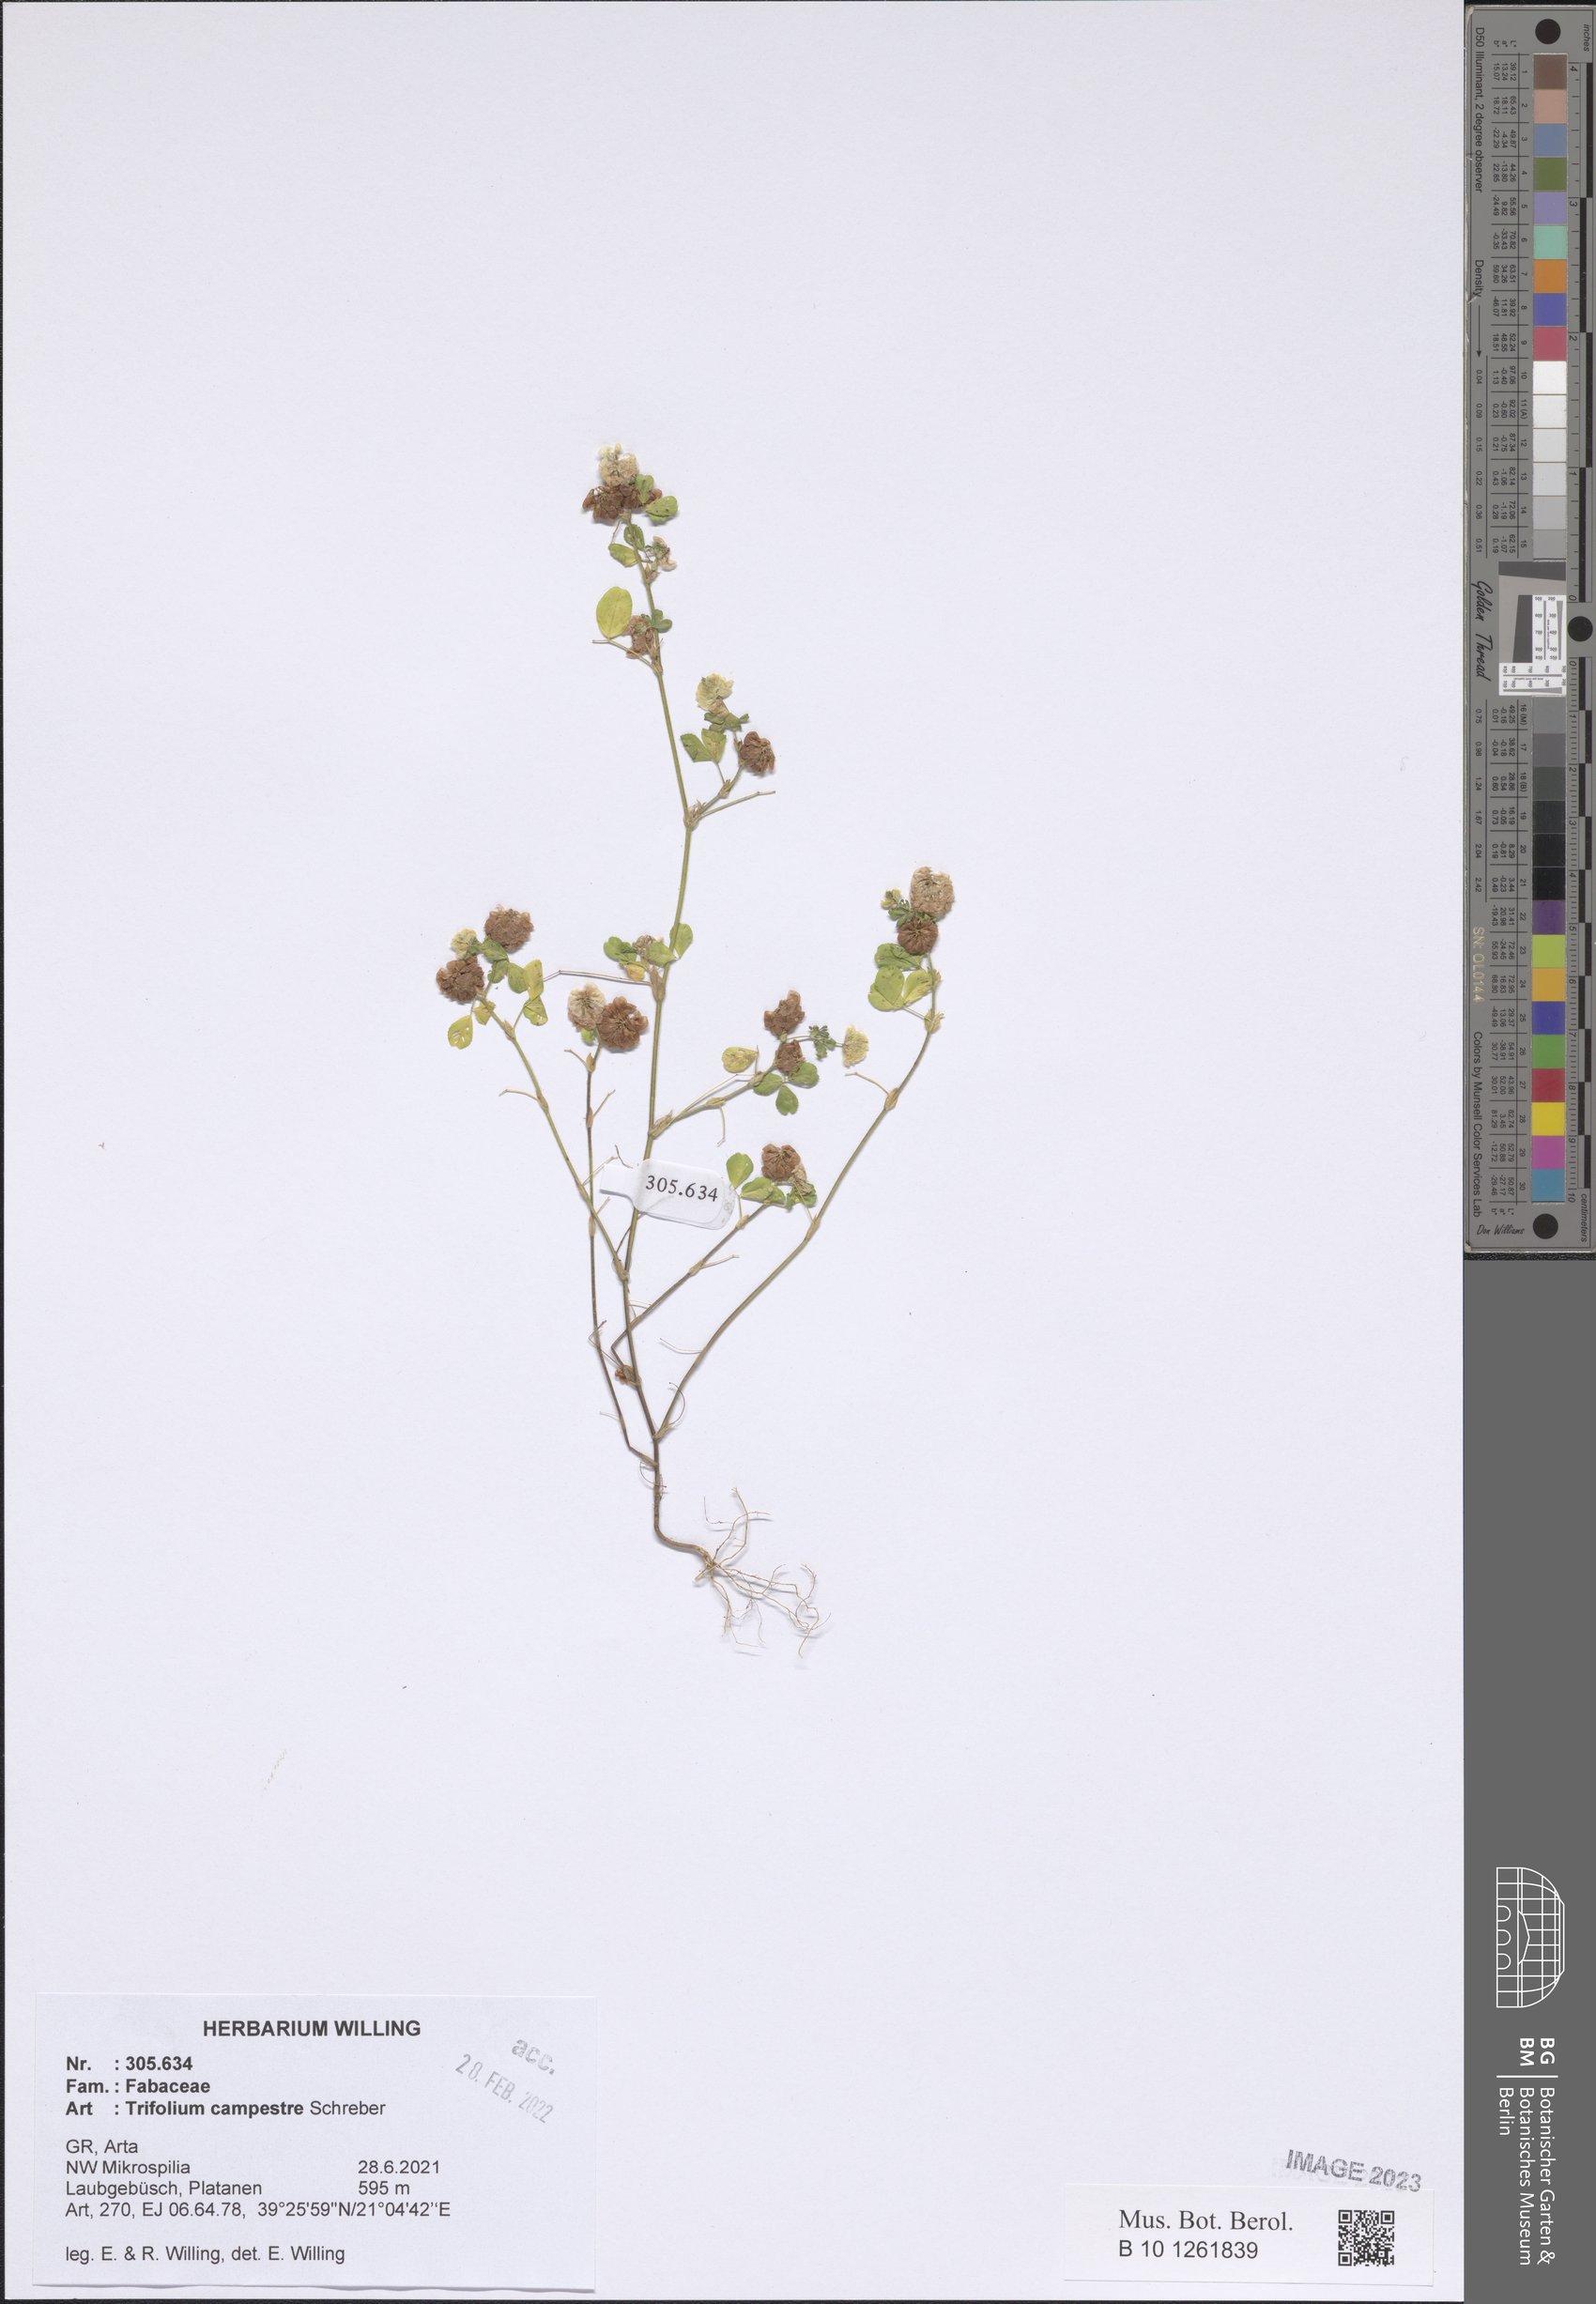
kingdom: Plantae
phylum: Tracheophyta
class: Magnoliopsida
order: Fabales
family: Fabaceae
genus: Trifolium
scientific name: Trifolium campestre
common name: Field clover
